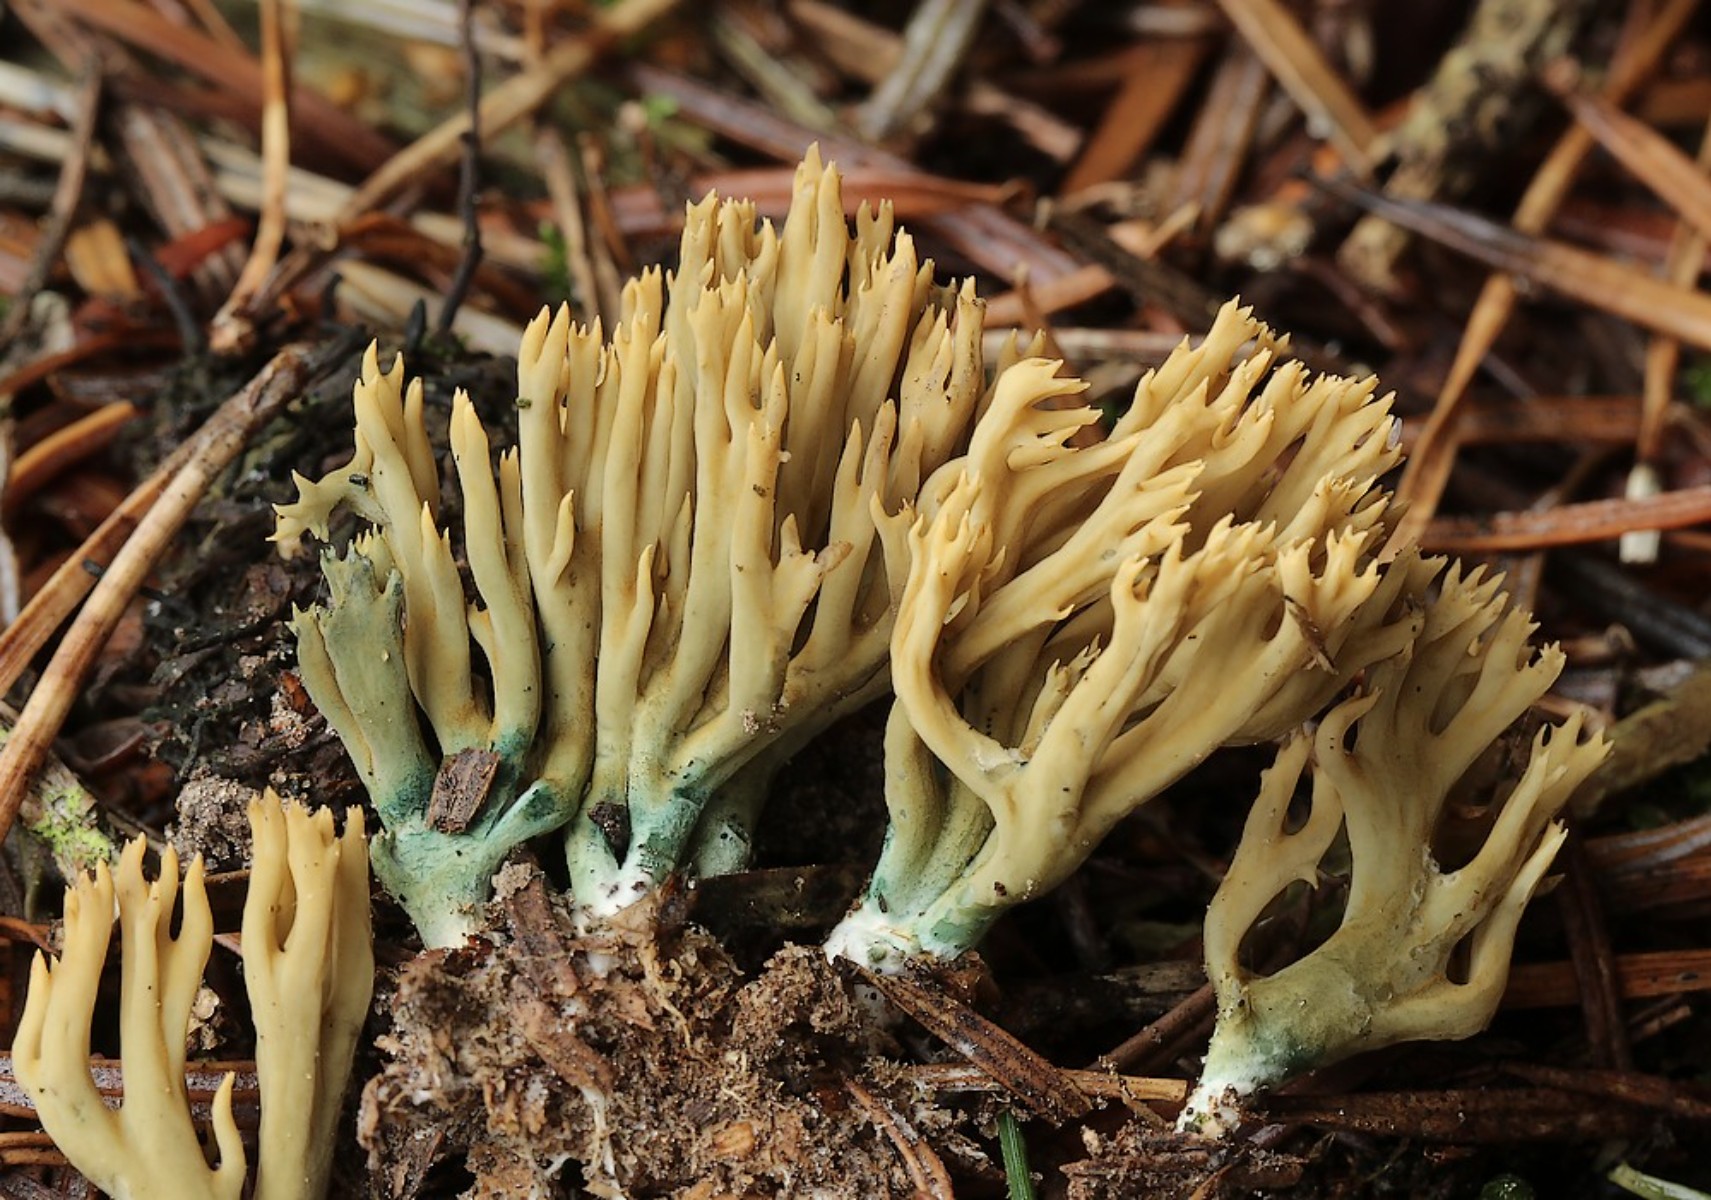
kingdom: Fungi
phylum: Basidiomycota
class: Agaricomycetes
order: Gomphales
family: Gomphaceae
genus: Phaeoclavulina
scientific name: Phaeoclavulina abietina
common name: gulgrøn koralsvamp
